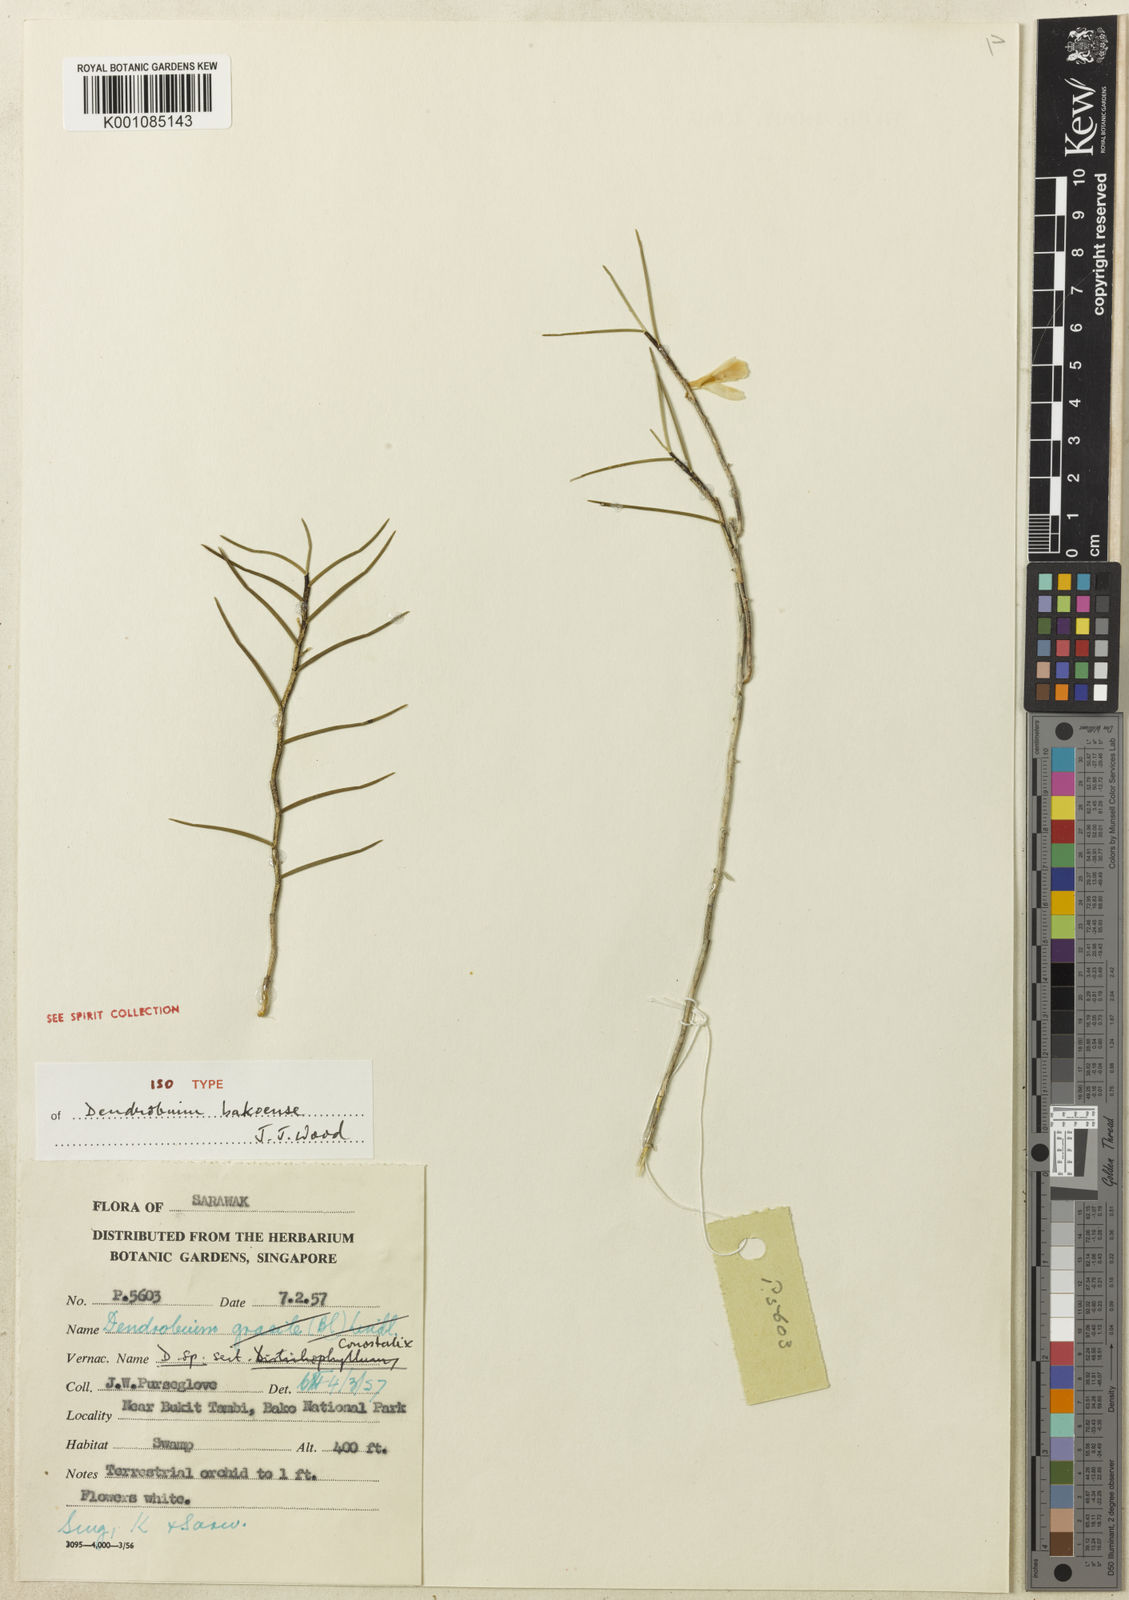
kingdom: Plantae
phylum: Tracheophyta
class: Liliopsida
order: Asparagales
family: Orchidaceae
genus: Dendrobium
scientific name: Dendrobium bakoense
